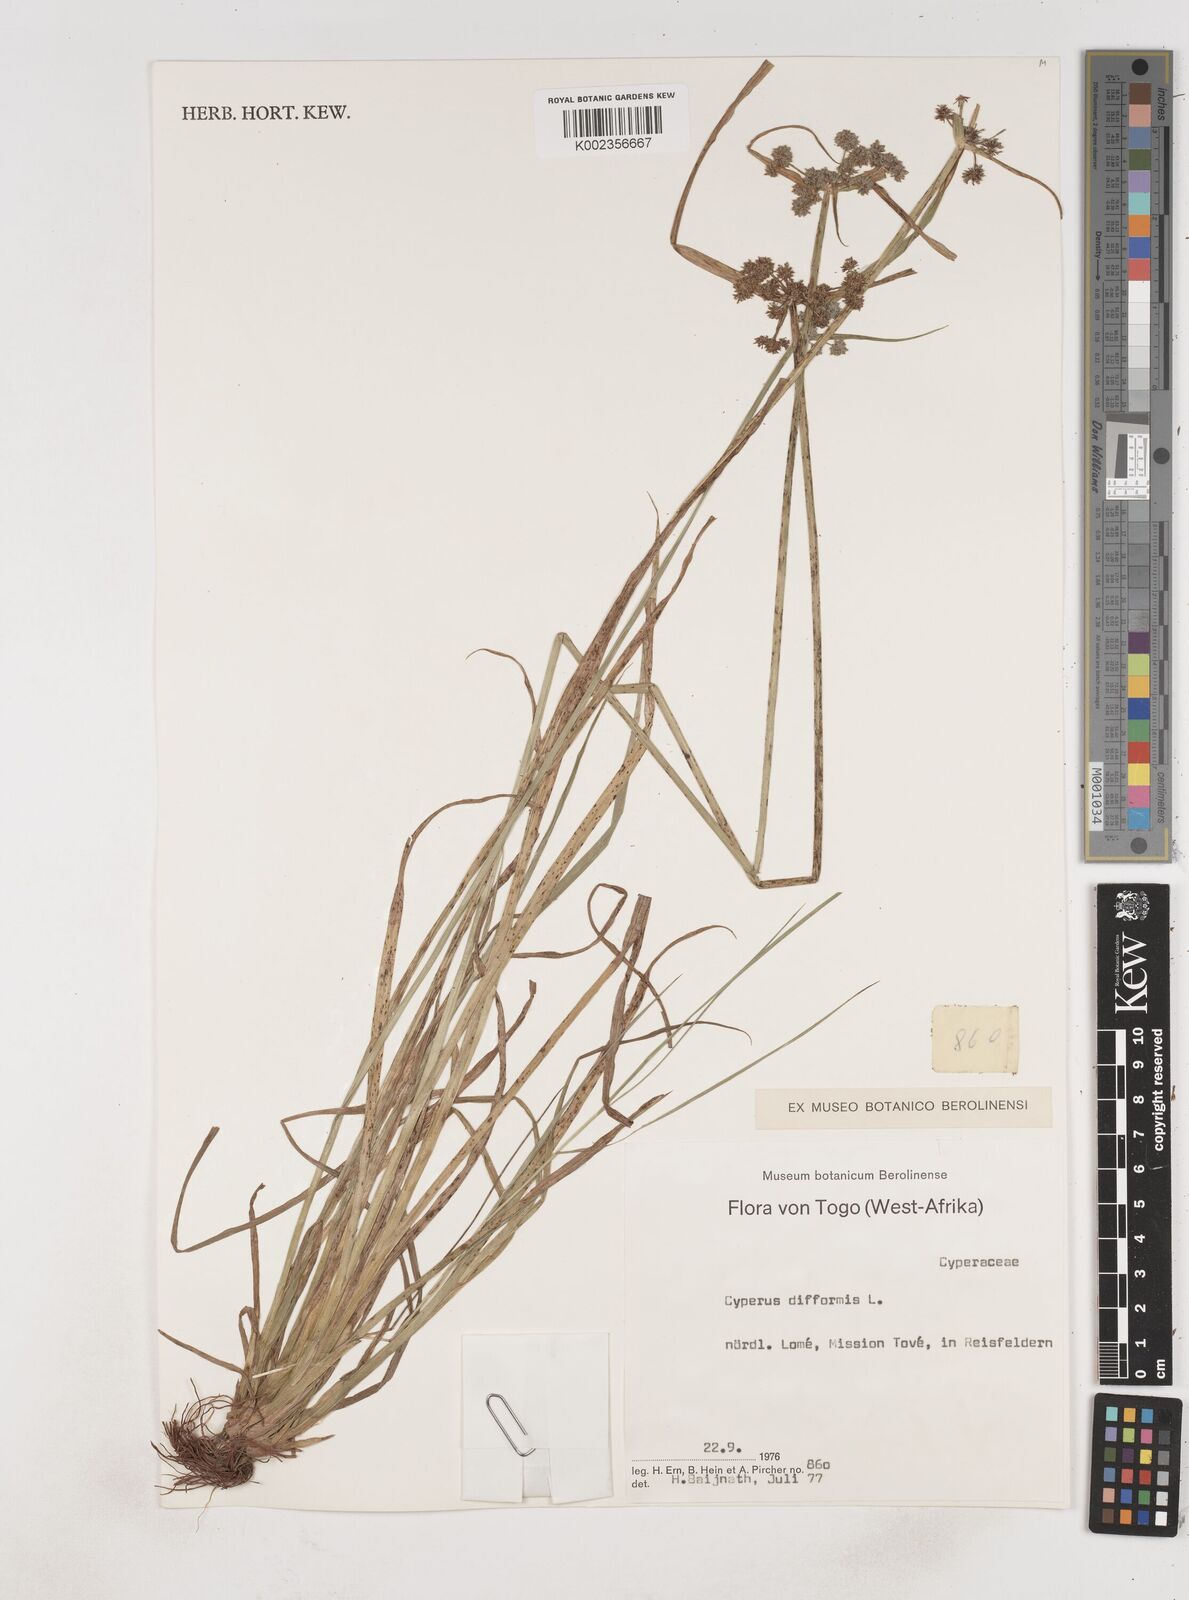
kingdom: Plantae
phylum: Tracheophyta
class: Liliopsida
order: Poales
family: Cyperaceae
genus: Cyperus
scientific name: Cyperus difformis
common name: Variable flatsedge
